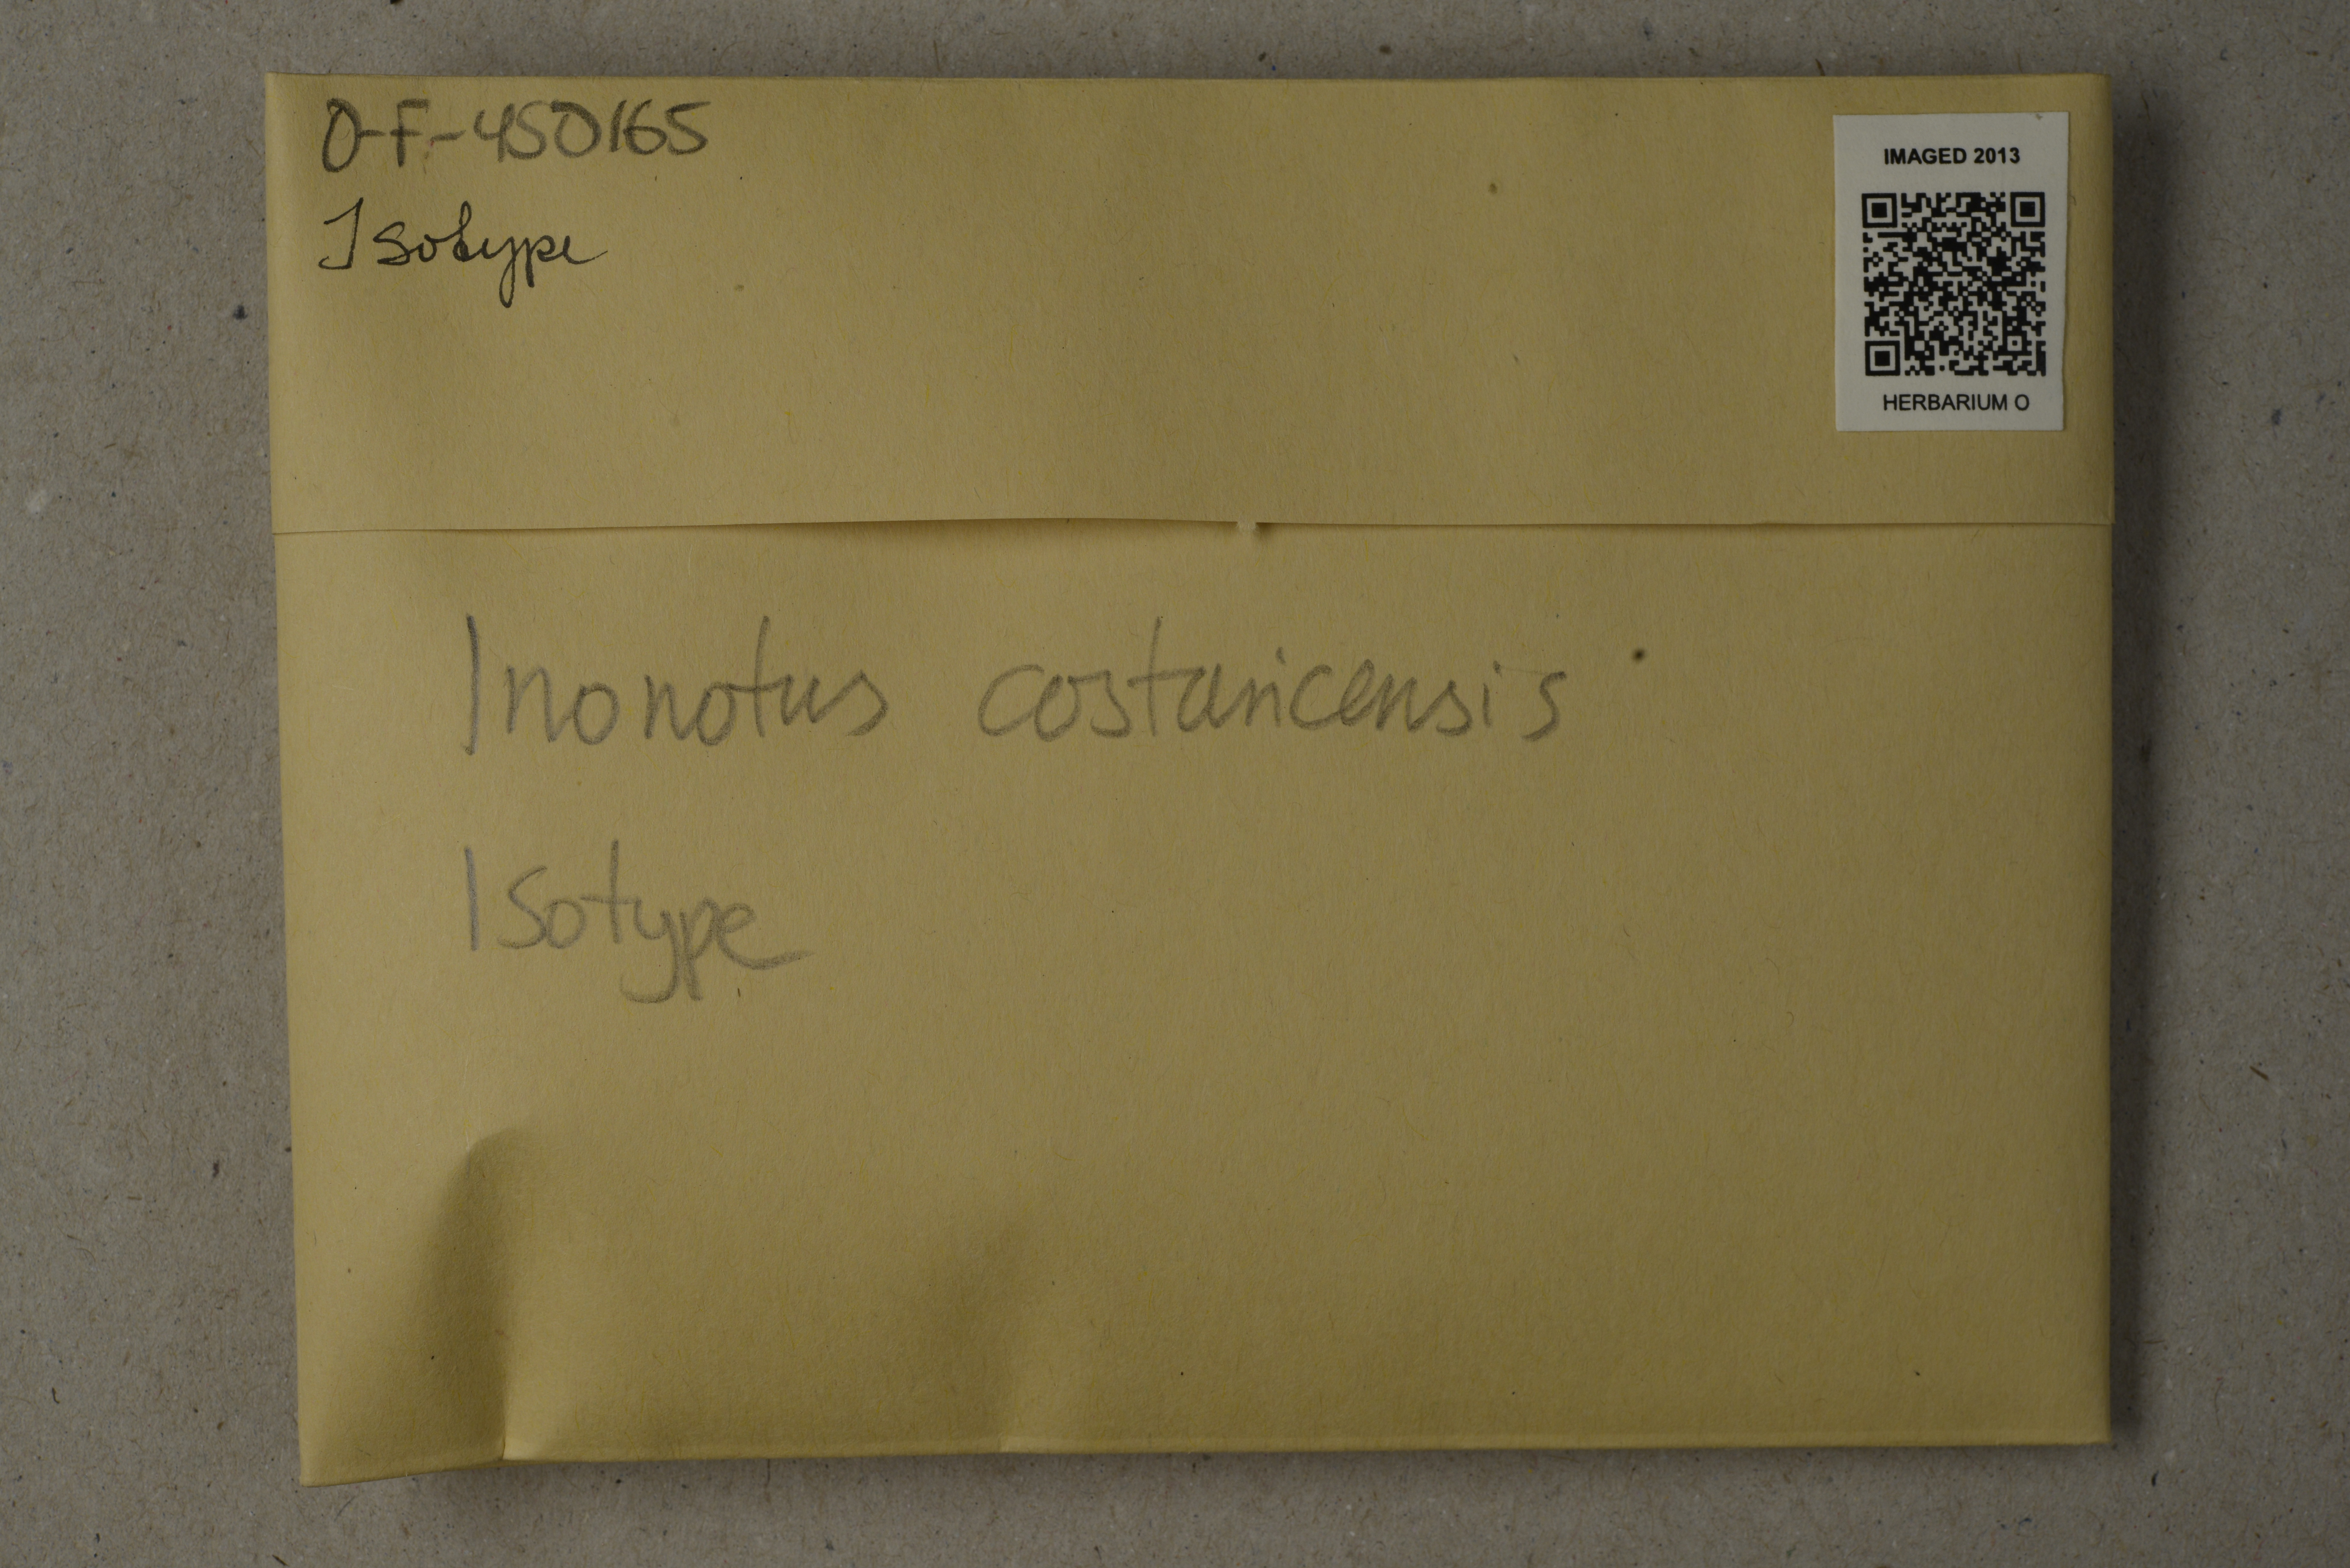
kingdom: Fungi
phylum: Basidiomycota
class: Agaricomycetes
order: Hymenochaetales
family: Hymenochaetaceae
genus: Inonotus
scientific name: Inonotus costaricensis
